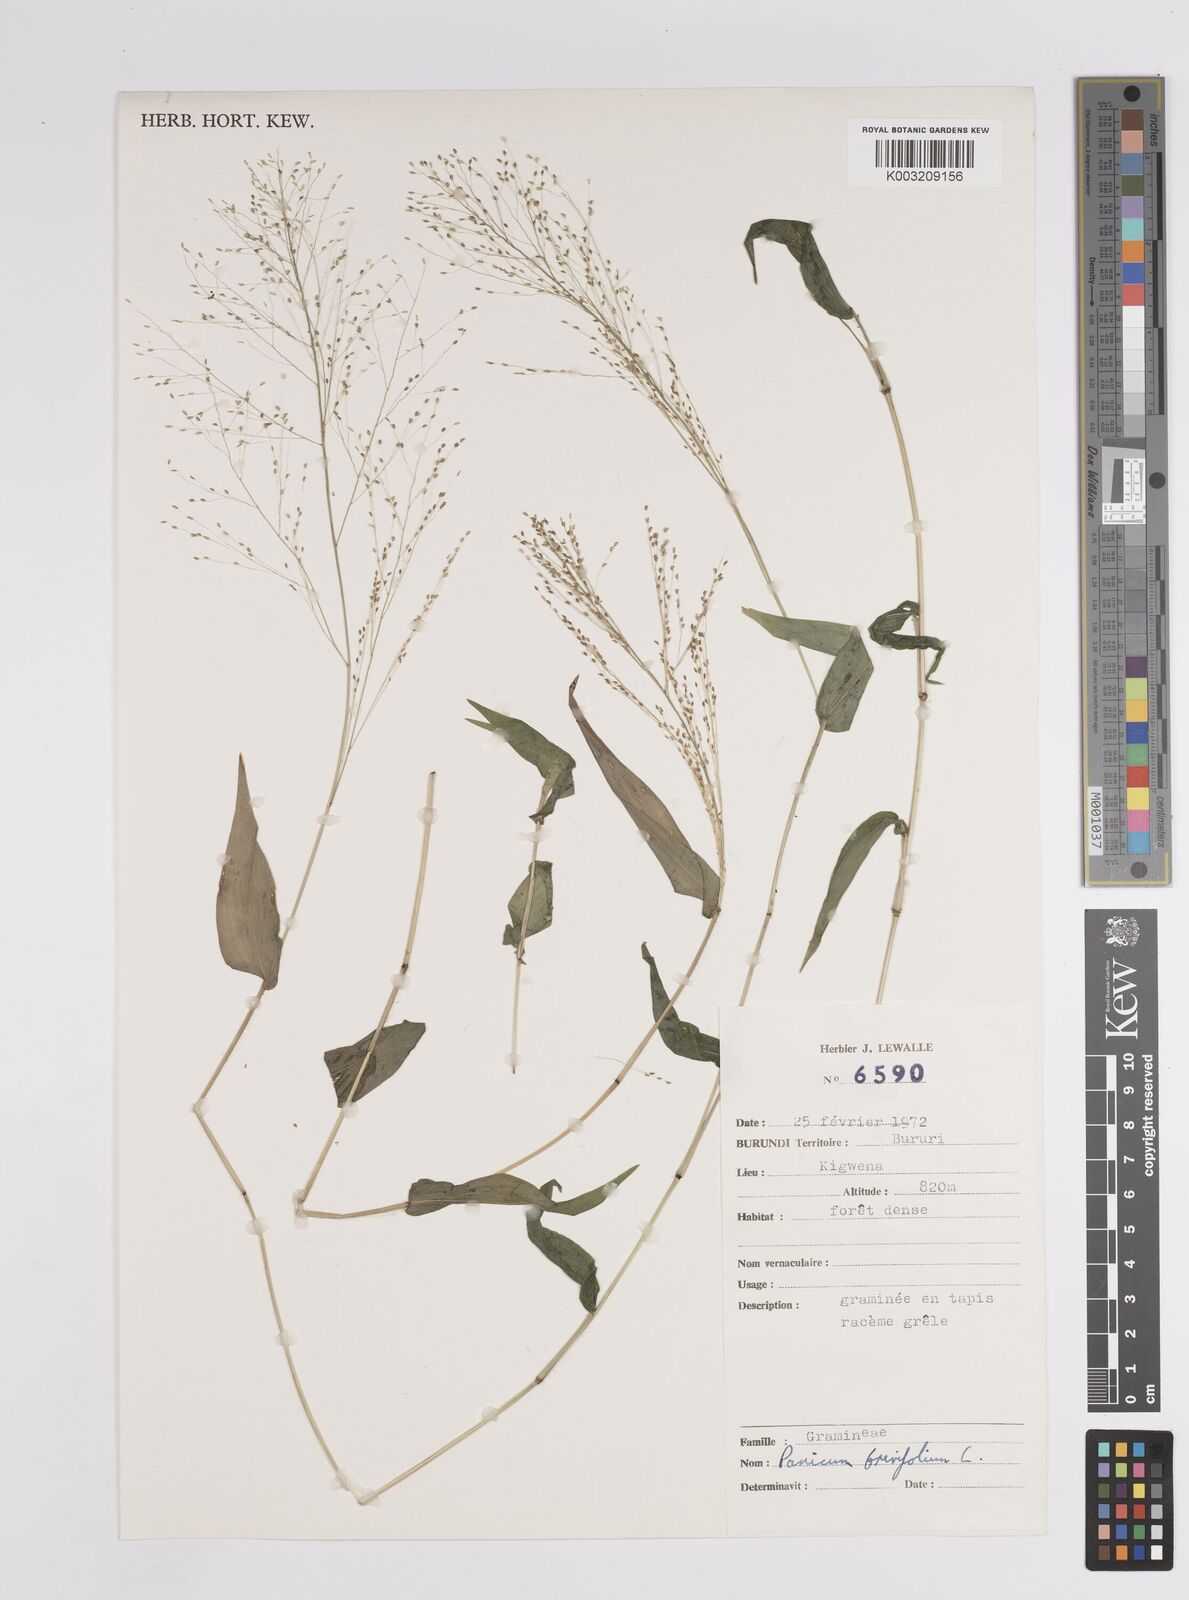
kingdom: Plantae
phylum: Tracheophyta
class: Liliopsida
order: Poales
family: Poaceae
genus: Panicum
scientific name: Panicum brevifolium
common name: Shortleaf panic grass
